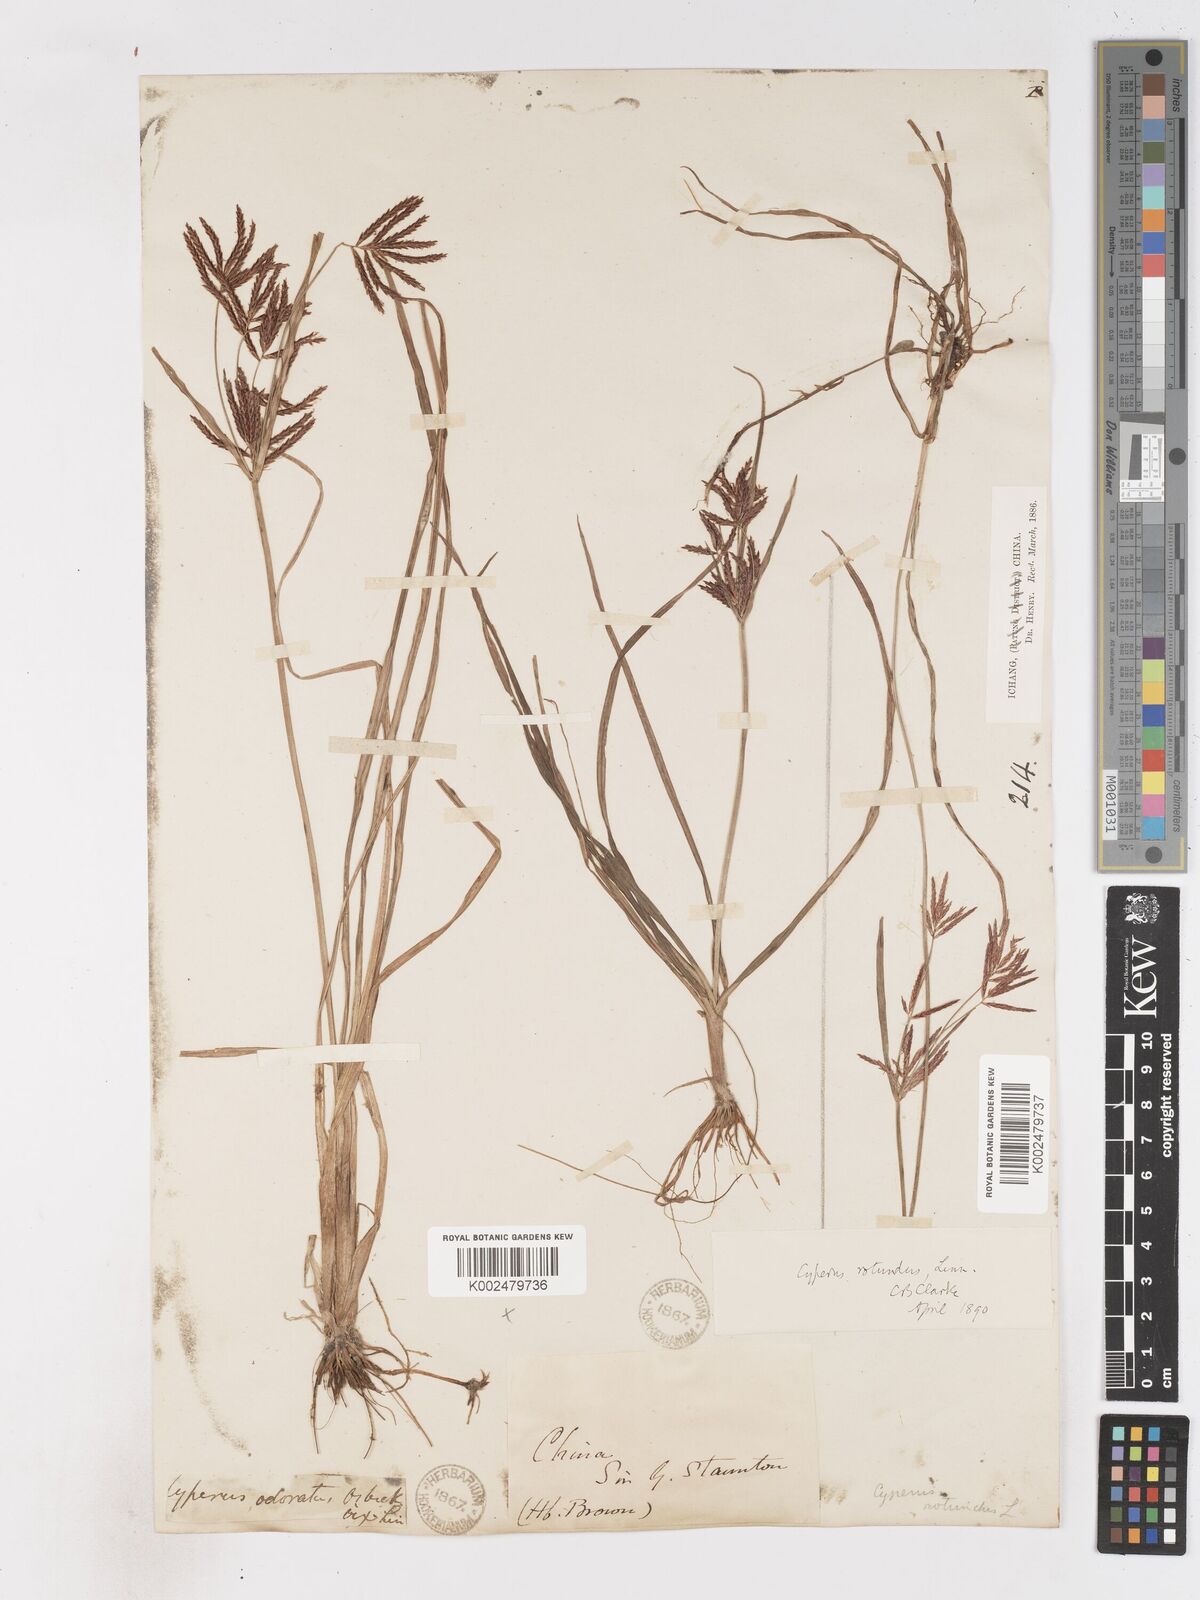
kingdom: Plantae
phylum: Tracheophyta
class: Liliopsida
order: Poales
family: Cyperaceae
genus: Cyperus
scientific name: Cyperus rotundus
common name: Nutgrass
